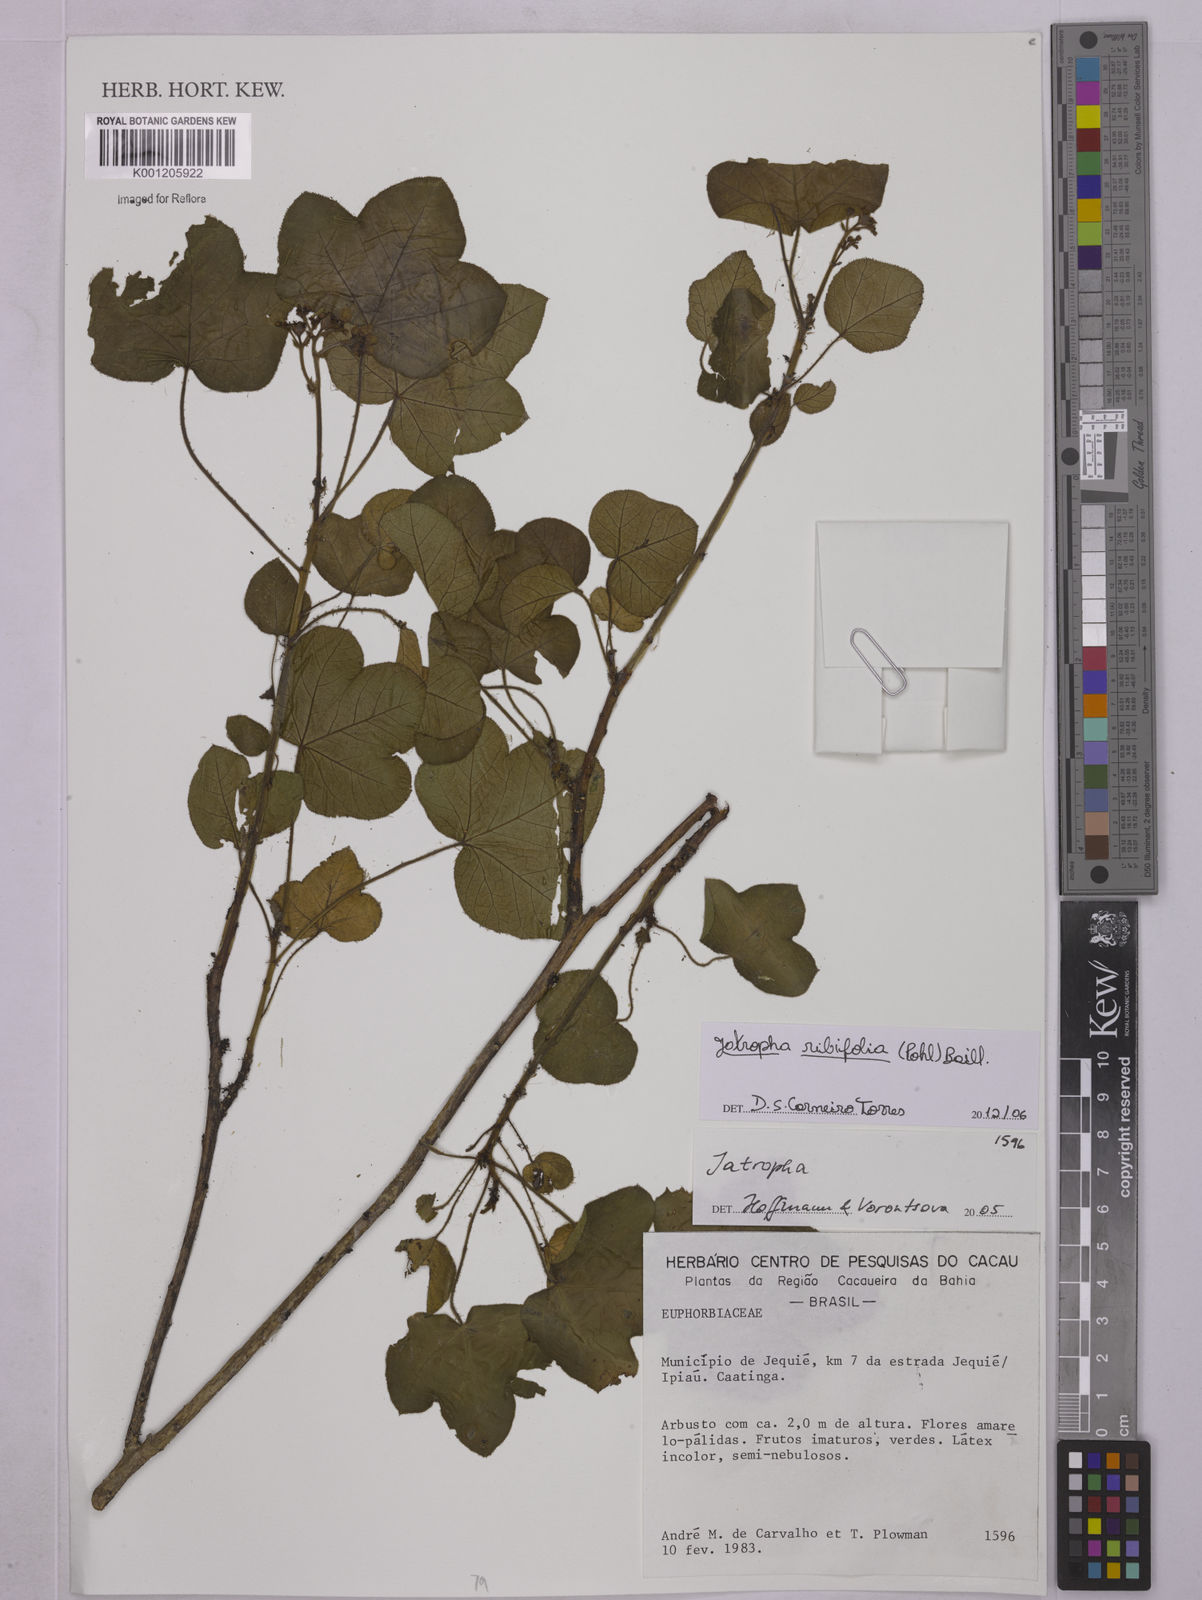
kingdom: Plantae
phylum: Tracheophyta
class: Magnoliopsida
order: Malpighiales
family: Euphorbiaceae
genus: Jatropha
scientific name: Jatropha ribifolia
